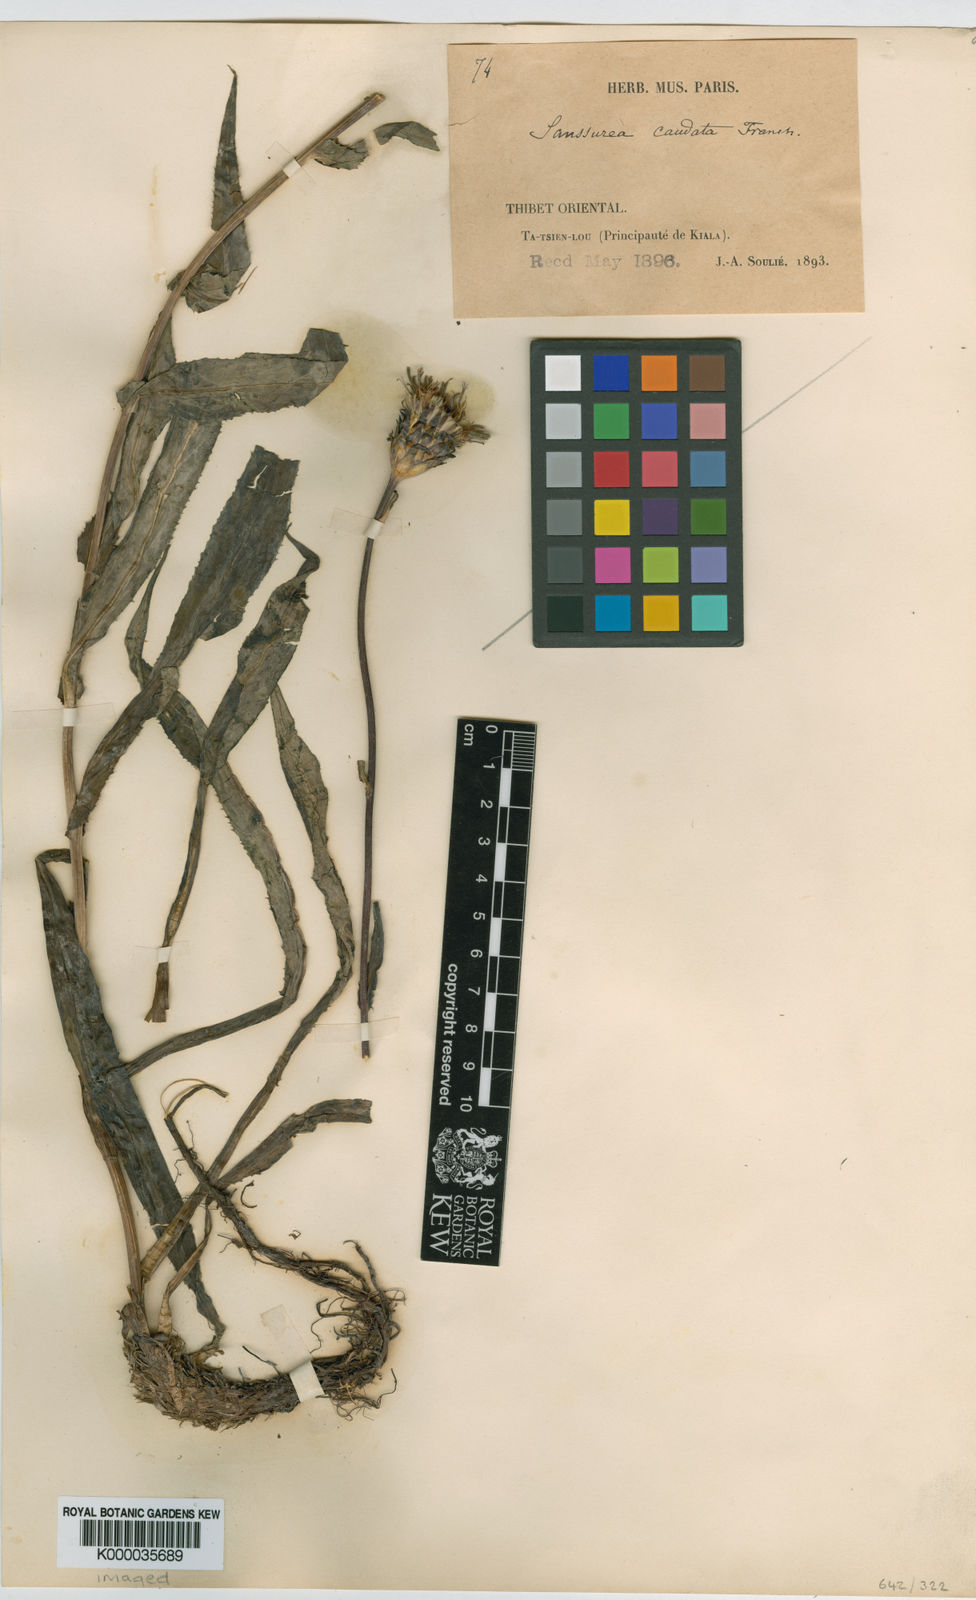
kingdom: Plantae
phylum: Tracheophyta
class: Magnoliopsida
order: Asterales
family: Asteraceae
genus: Saussurea
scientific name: Saussurea caudata
